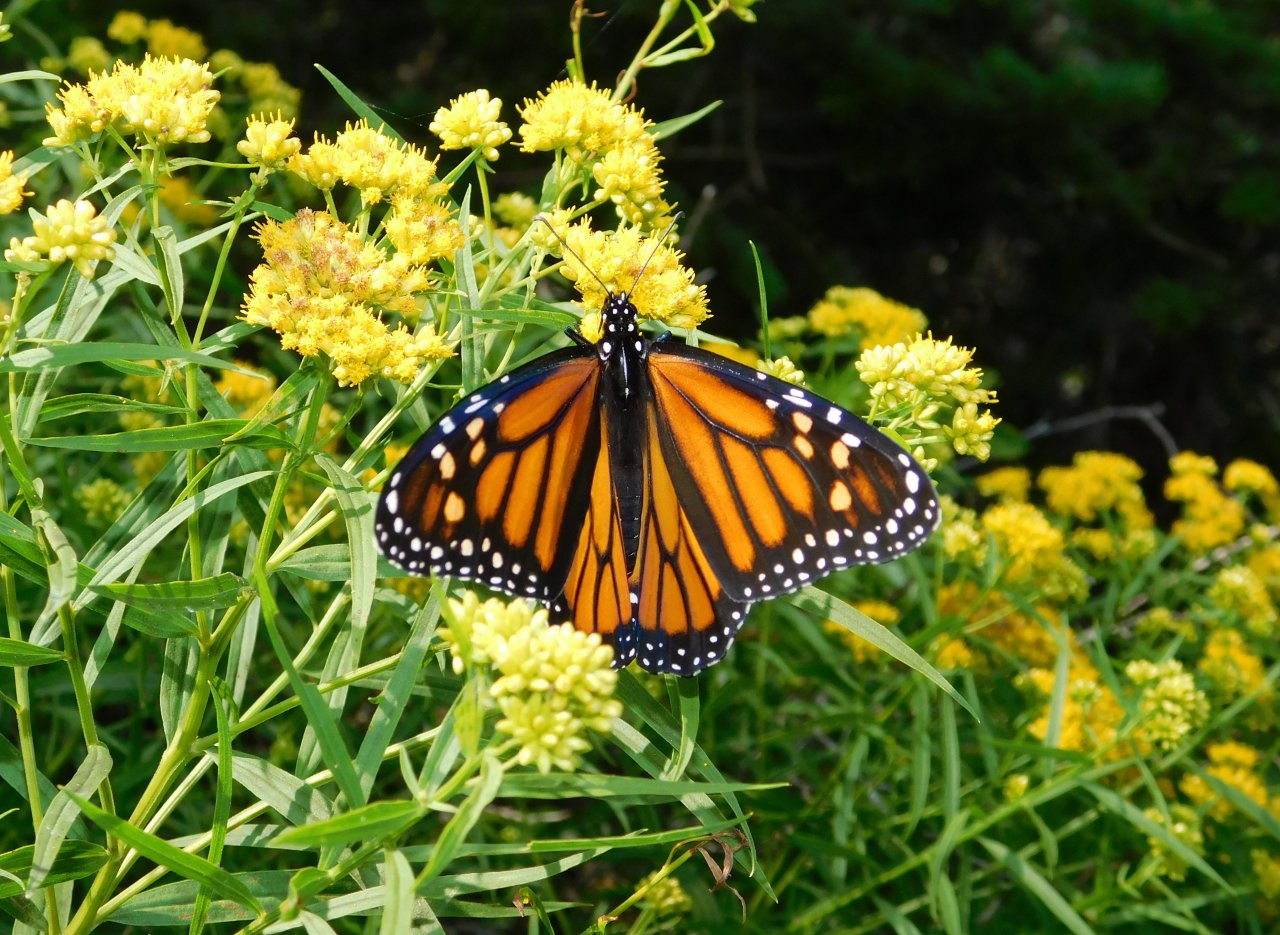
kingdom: Animalia
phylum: Arthropoda
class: Insecta
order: Lepidoptera
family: Nymphalidae
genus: Danaus
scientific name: Danaus plexippus
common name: Monarch
